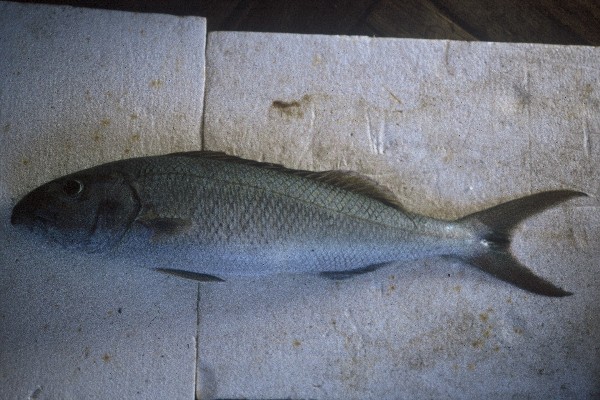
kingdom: Animalia
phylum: Chordata
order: Perciformes
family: Lutjanidae
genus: Aprion
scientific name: Aprion virescens
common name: Green jobfish
